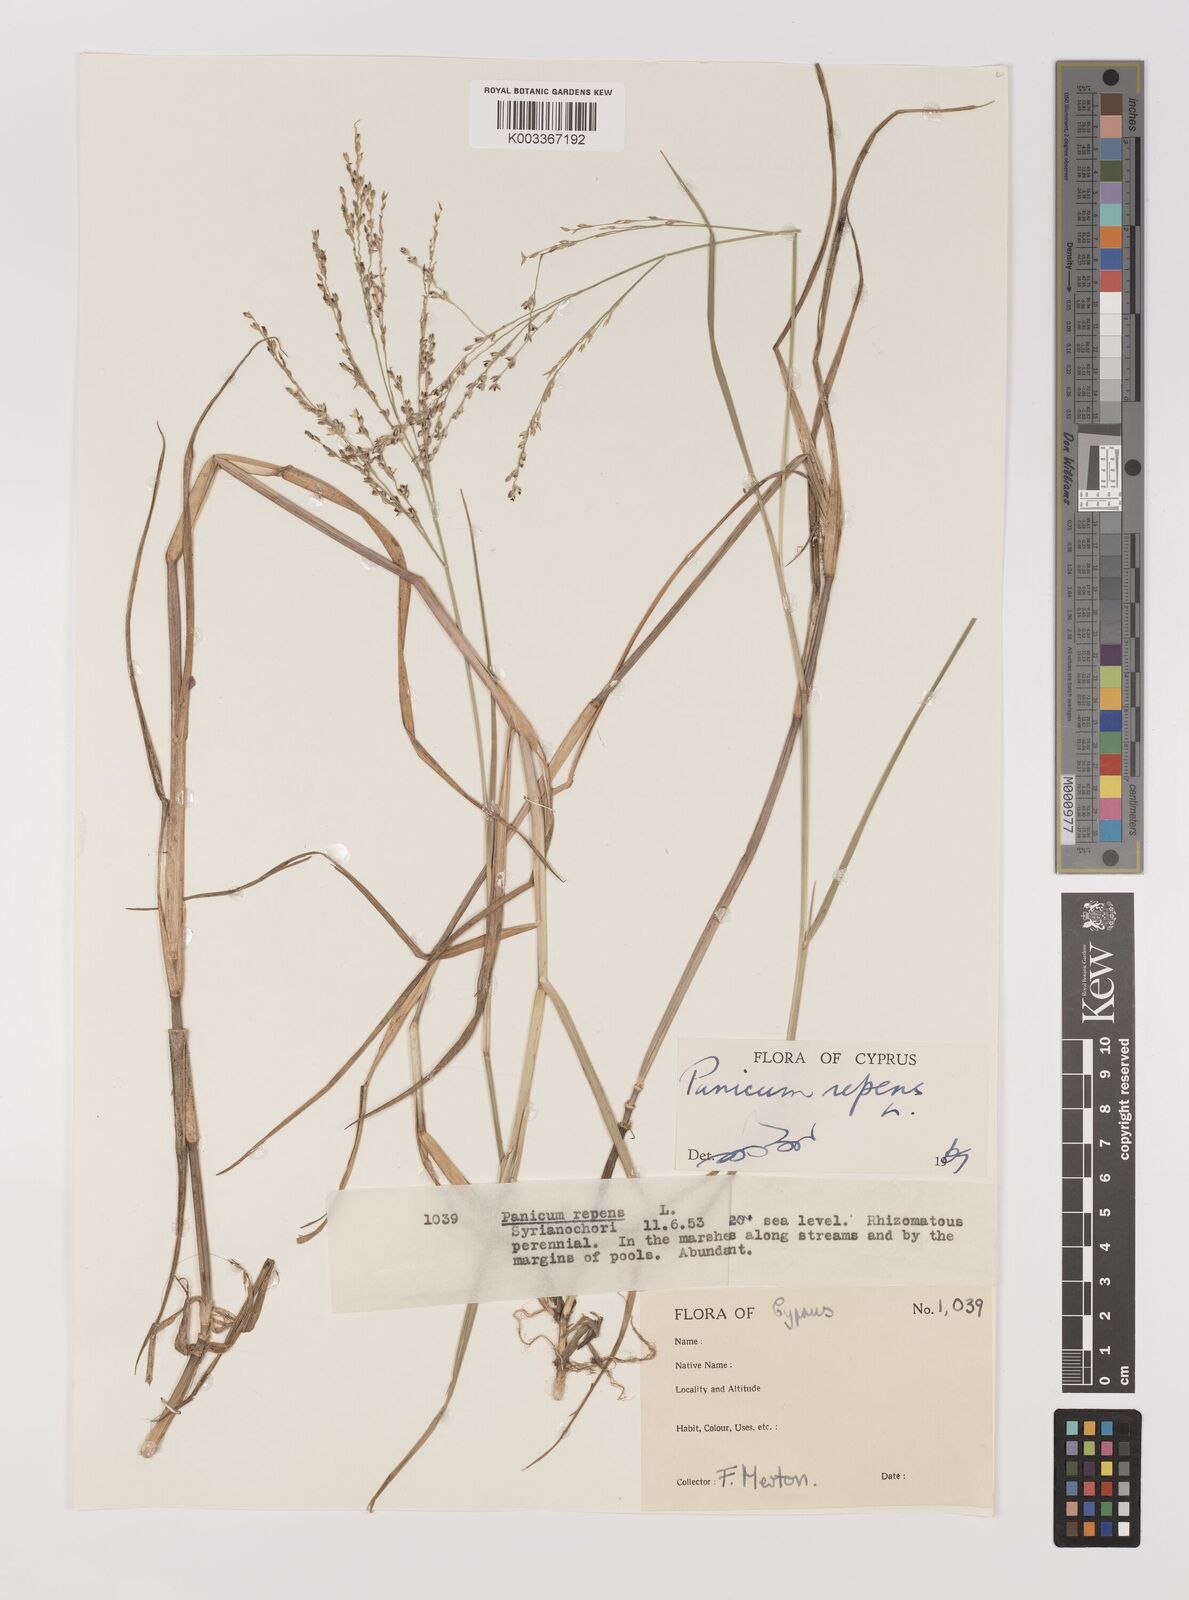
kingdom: Plantae
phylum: Tracheophyta
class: Liliopsida
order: Poales
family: Poaceae
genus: Panicum
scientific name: Panicum repens
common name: Torpedo grass
